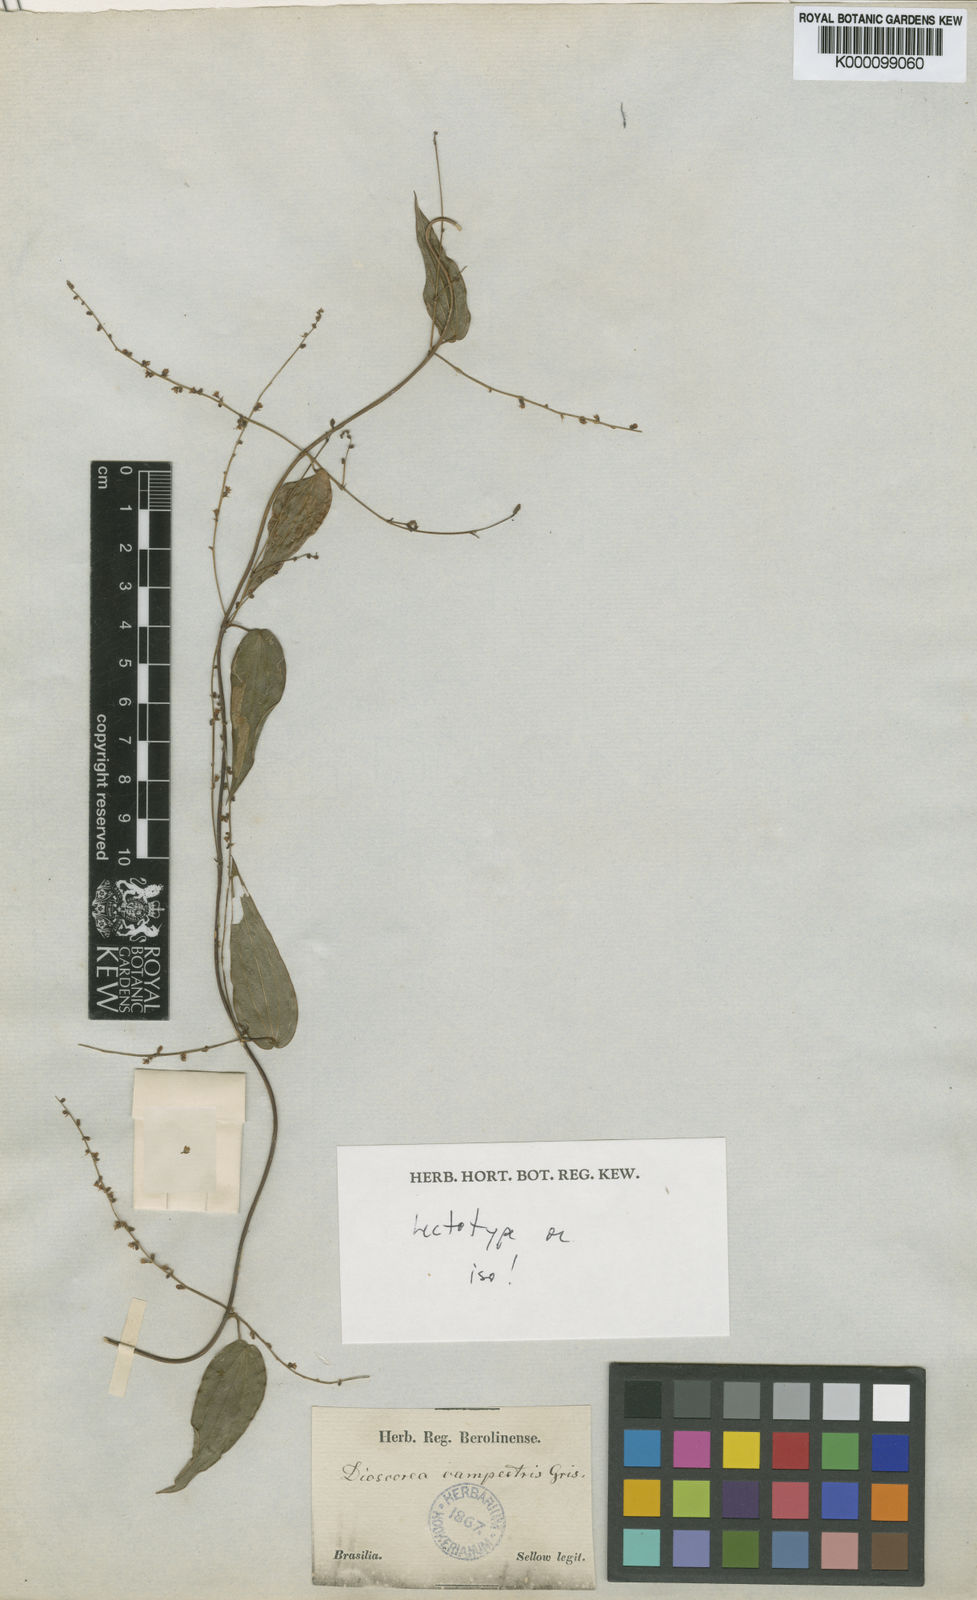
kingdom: Plantae
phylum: Tracheophyta
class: Liliopsida
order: Dioscoreales
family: Dioscoreaceae
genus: Dioscorea
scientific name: Dioscorea campestris
